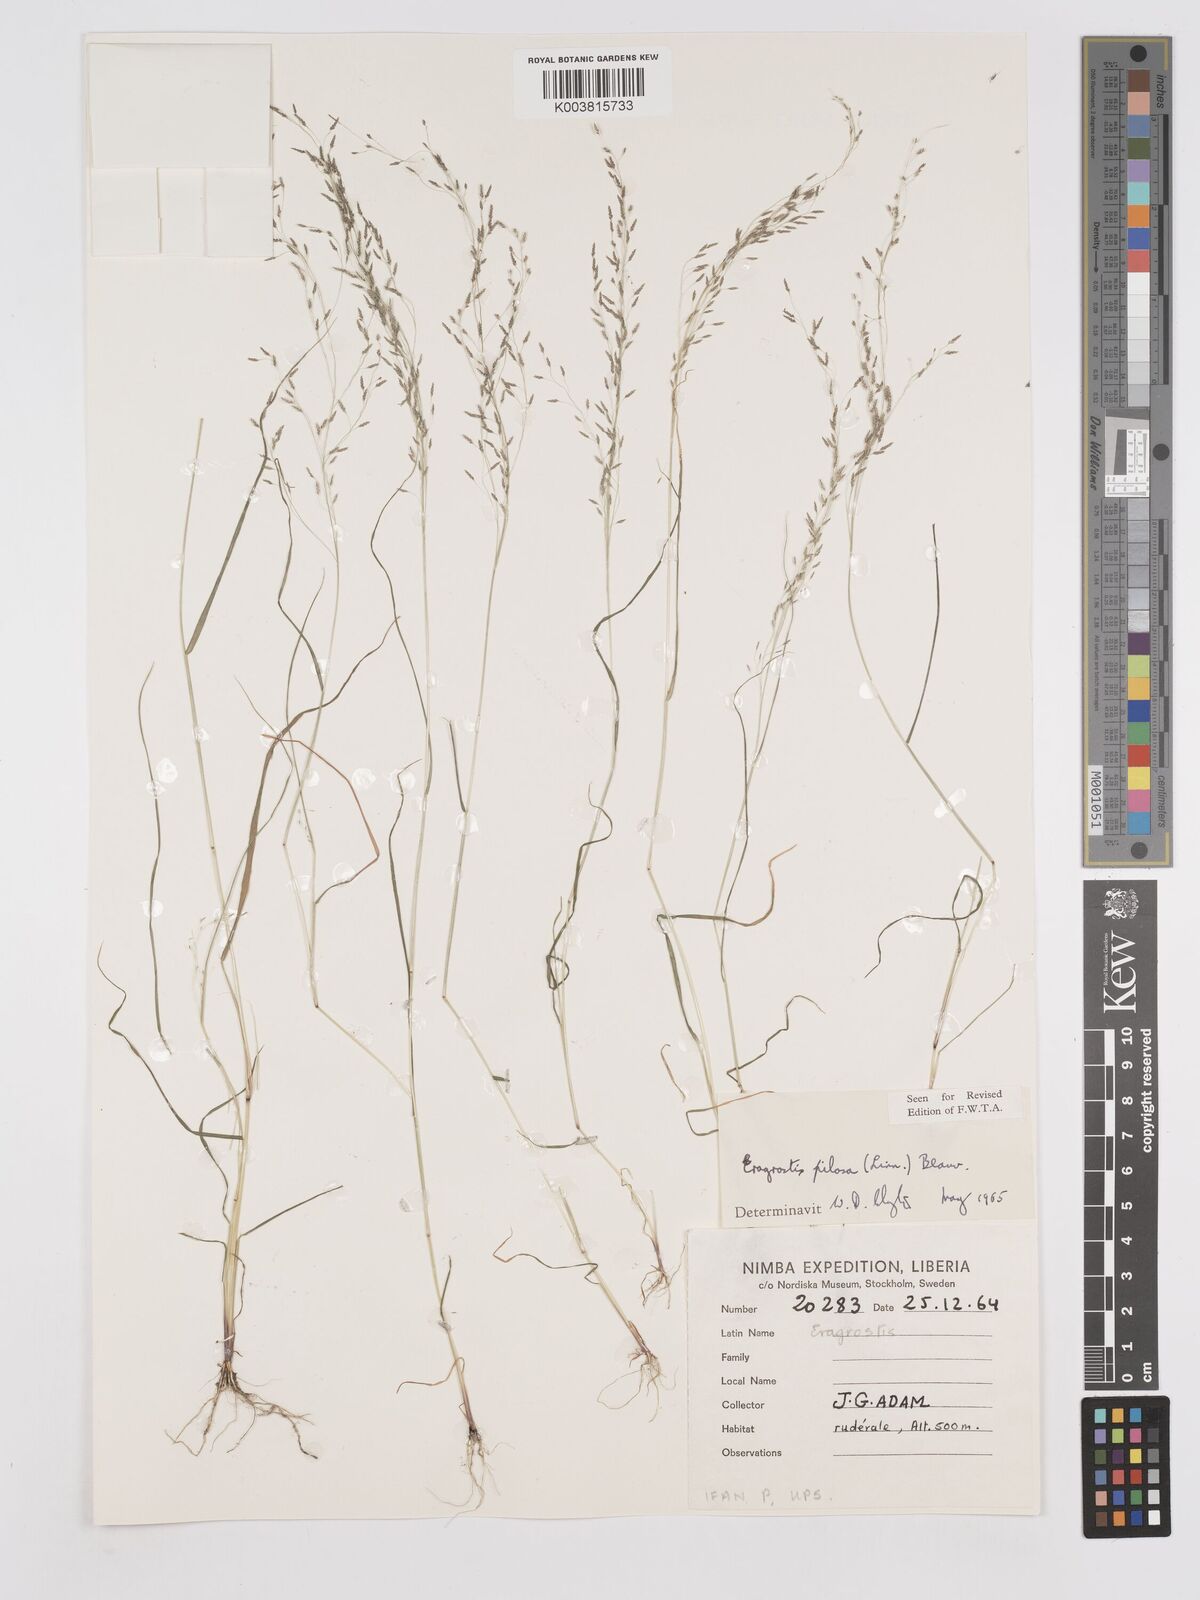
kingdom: Plantae
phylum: Tracheophyta
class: Liliopsida
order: Poales
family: Poaceae
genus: Eragrostis
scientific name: Eragrostis pilosa
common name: Indian lovegrass
